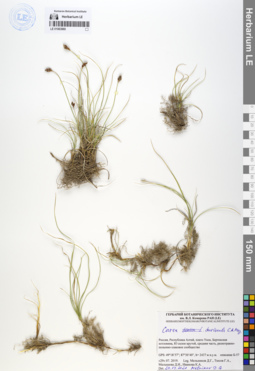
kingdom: Plantae
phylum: Tracheophyta
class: Liliopsida
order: Poales
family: Cyperaceae
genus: Carex
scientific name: Carex duriuscula
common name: Involute-leaved sedge
